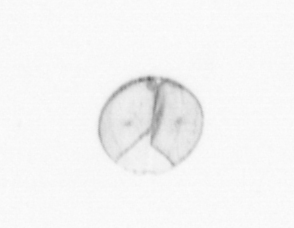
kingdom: Chromista
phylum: Ochrophyta
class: Bacillariophyceae
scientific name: Bacillariophyceae
